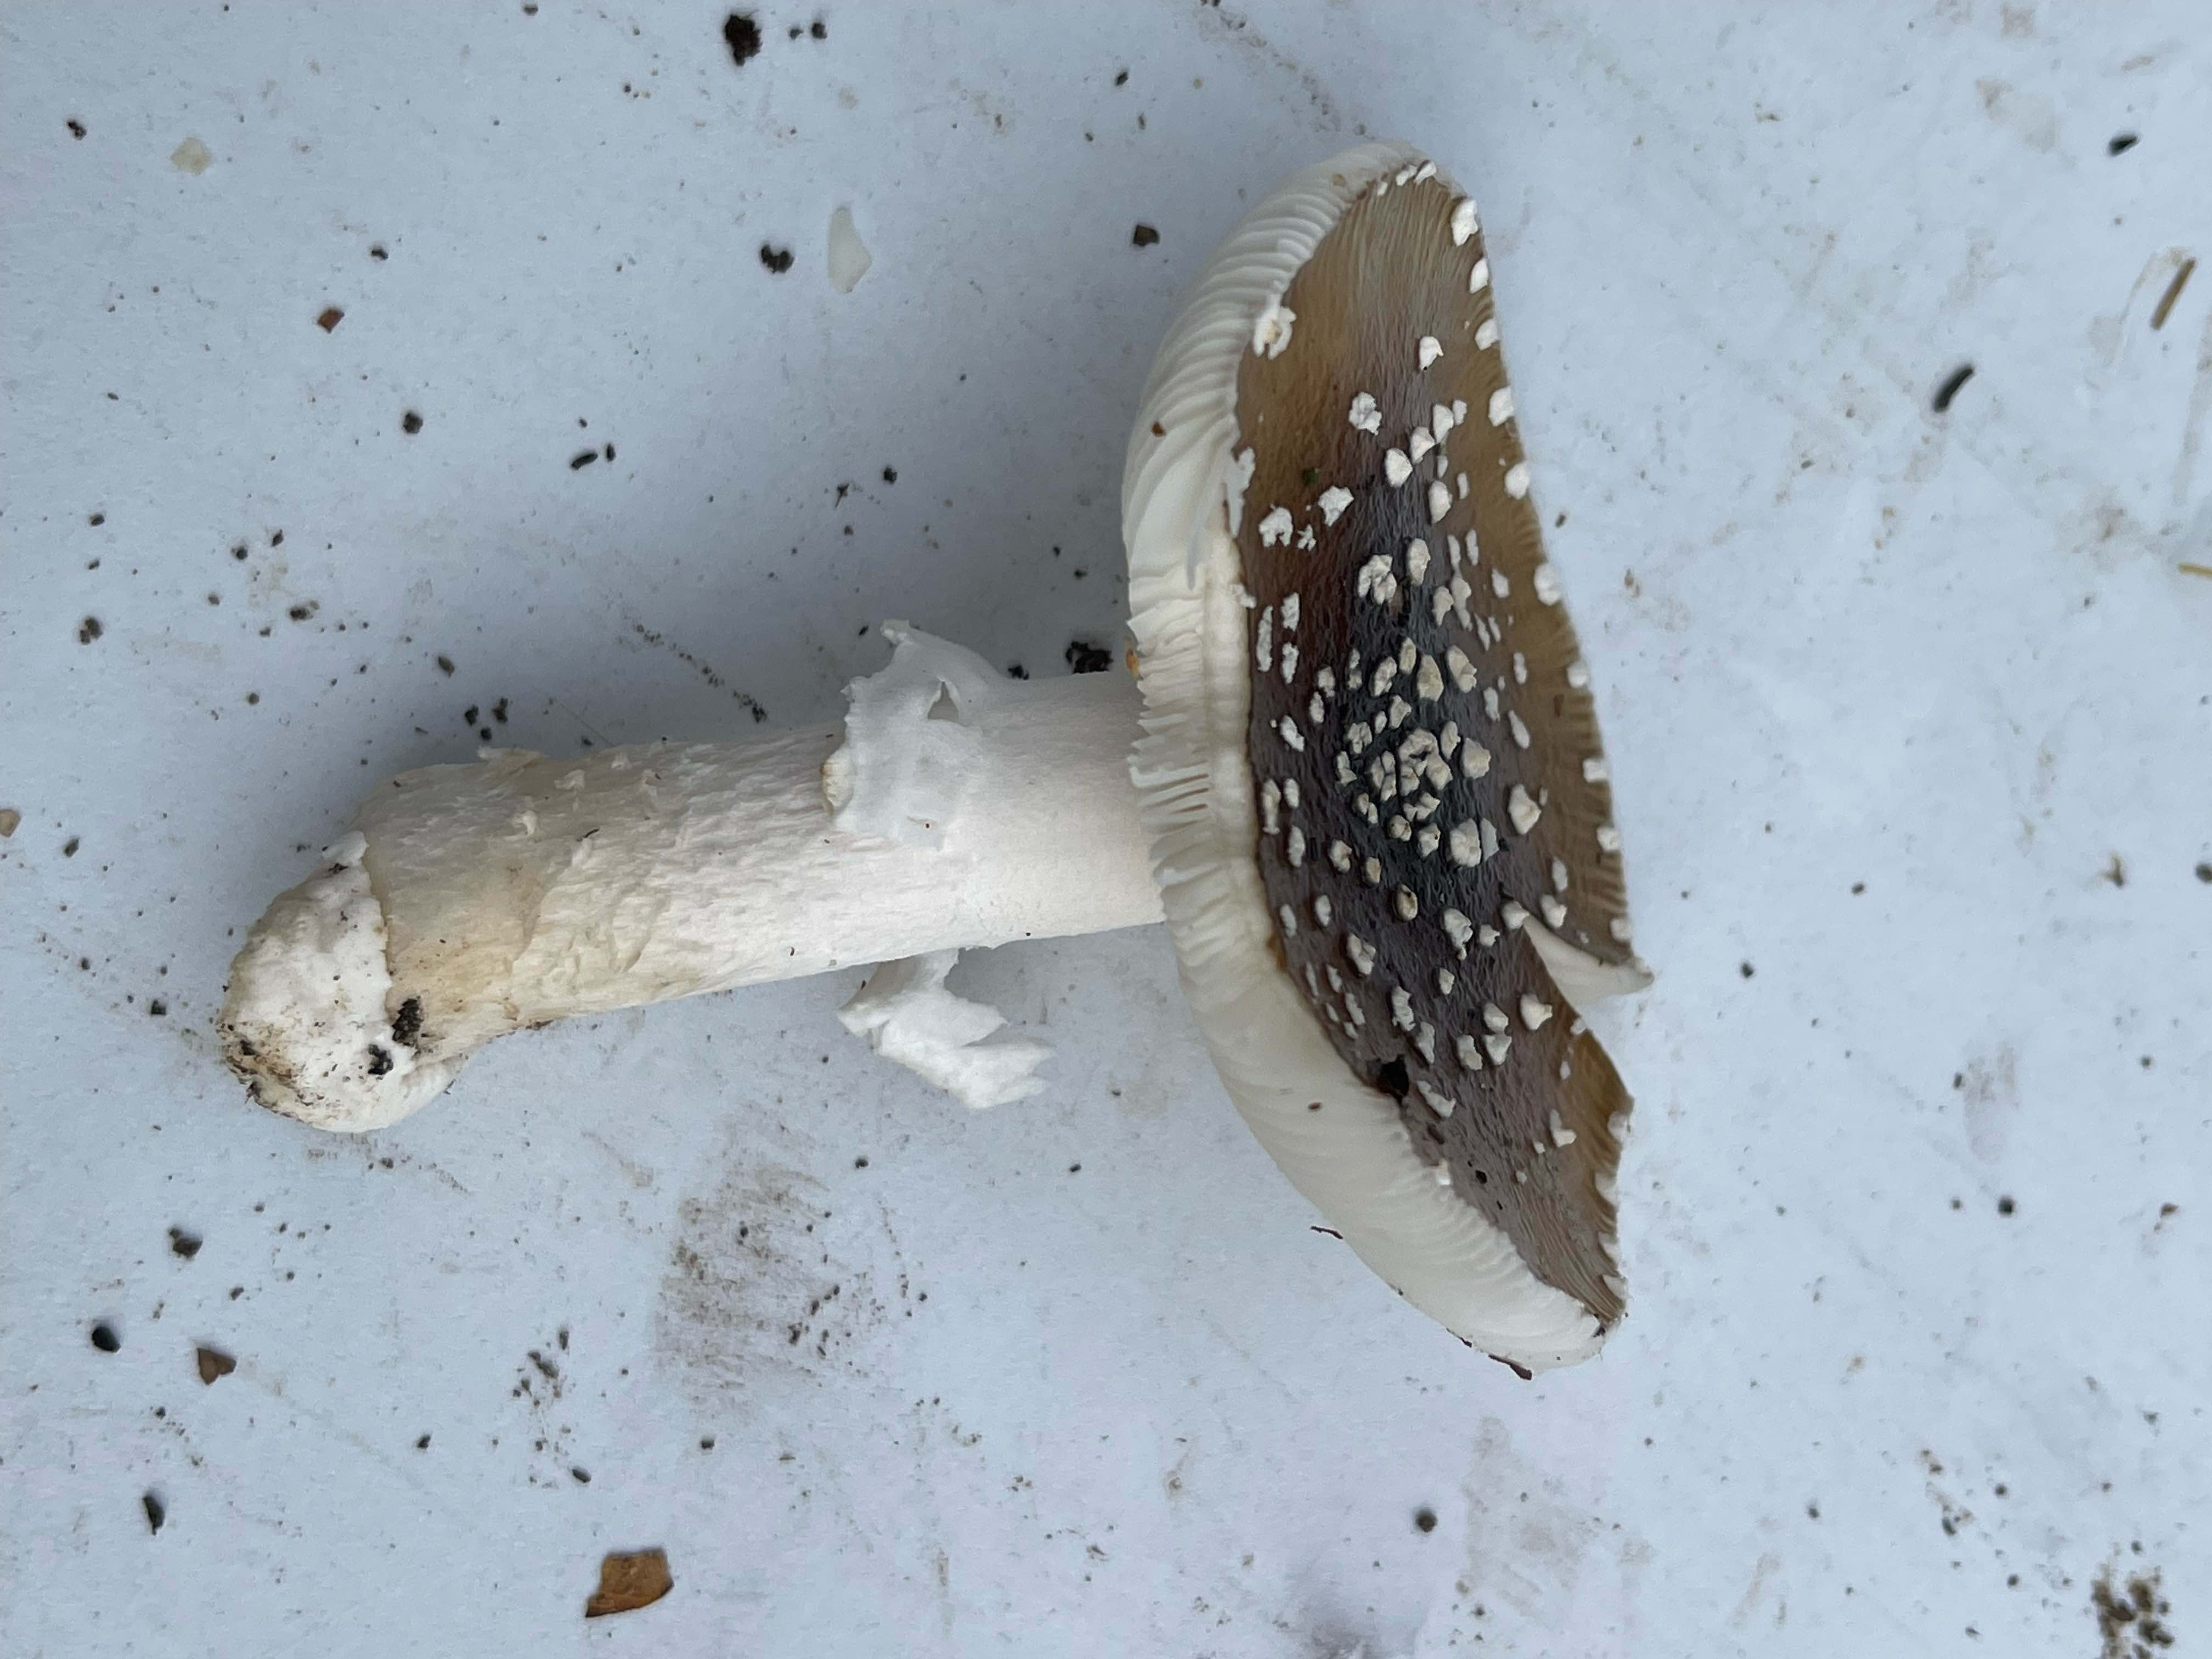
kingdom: Fungi
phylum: Basidiomycota
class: Agaricomycetes
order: Agaricales
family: Amanitaceae
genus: Amanita
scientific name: Amanita pantherina
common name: panter-fluesvamp
